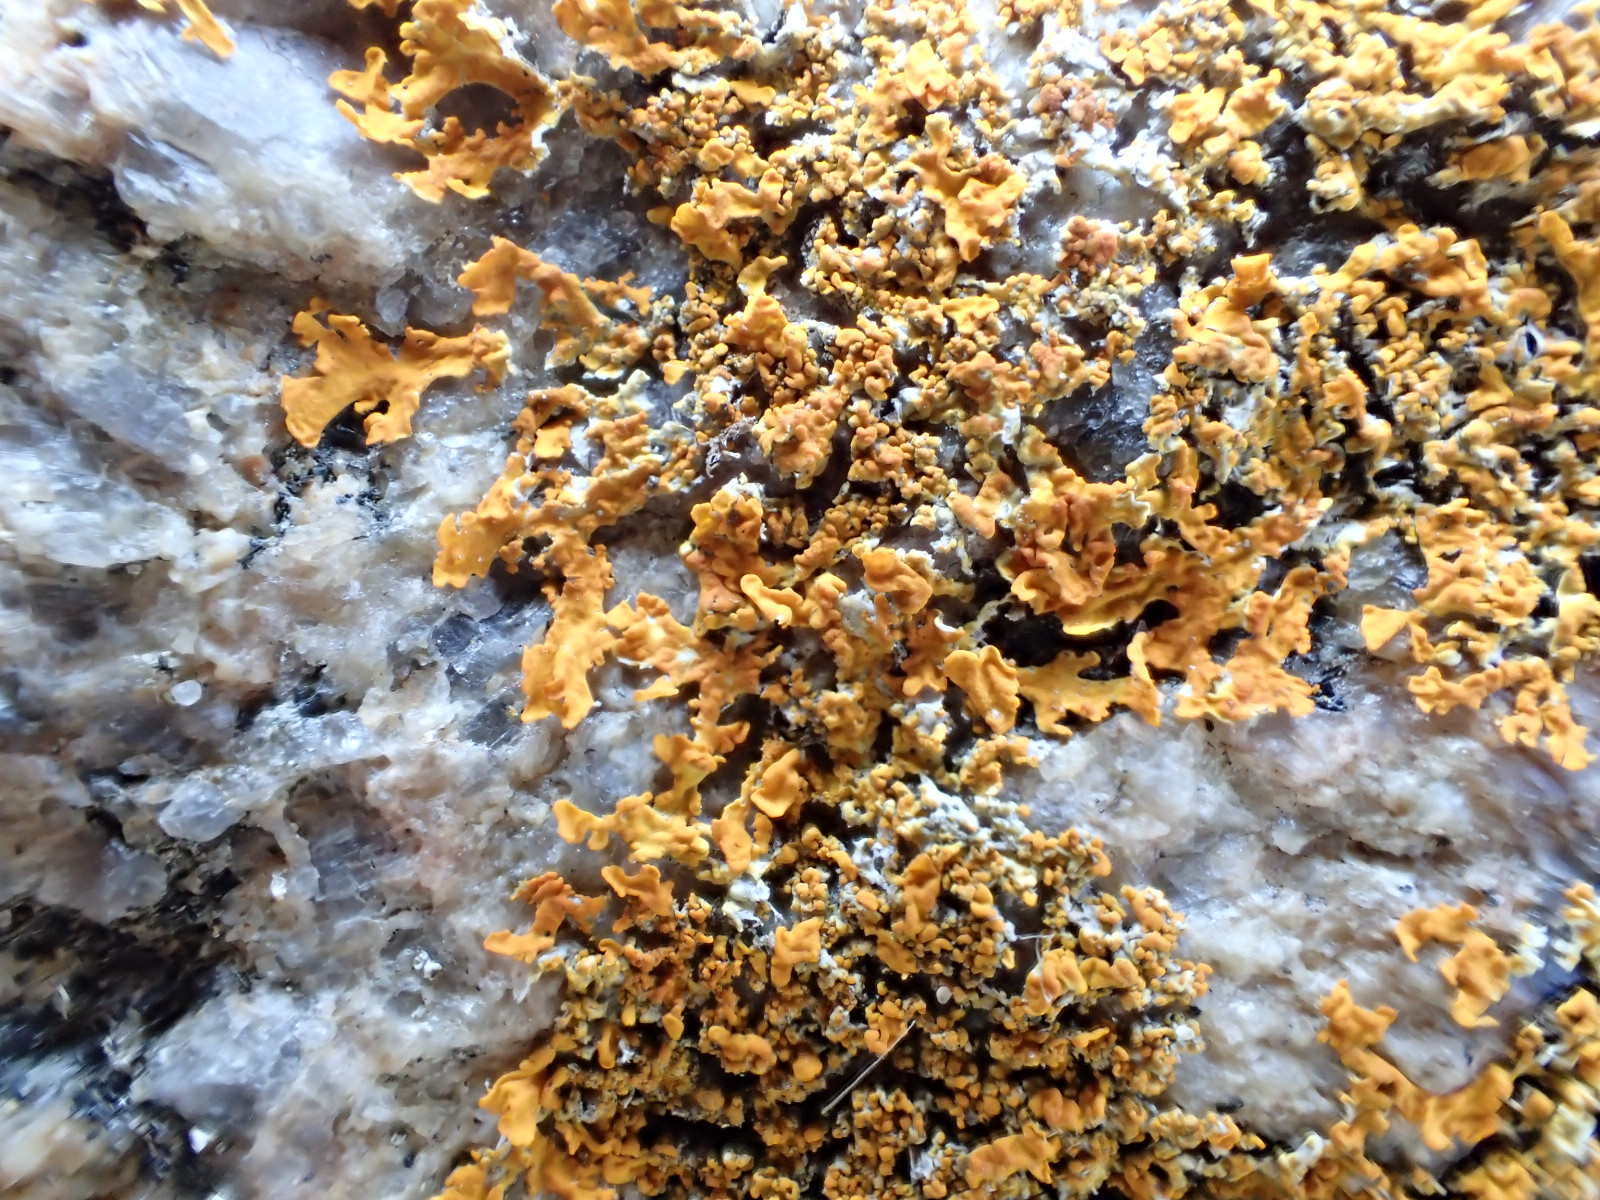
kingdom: Fungi
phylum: Ascomycota
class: Lecanoromycetes
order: Teloschistales
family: Teloschistaceae
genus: Xanthoria
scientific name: Xanthoria calcicola
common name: vortet væggelav
